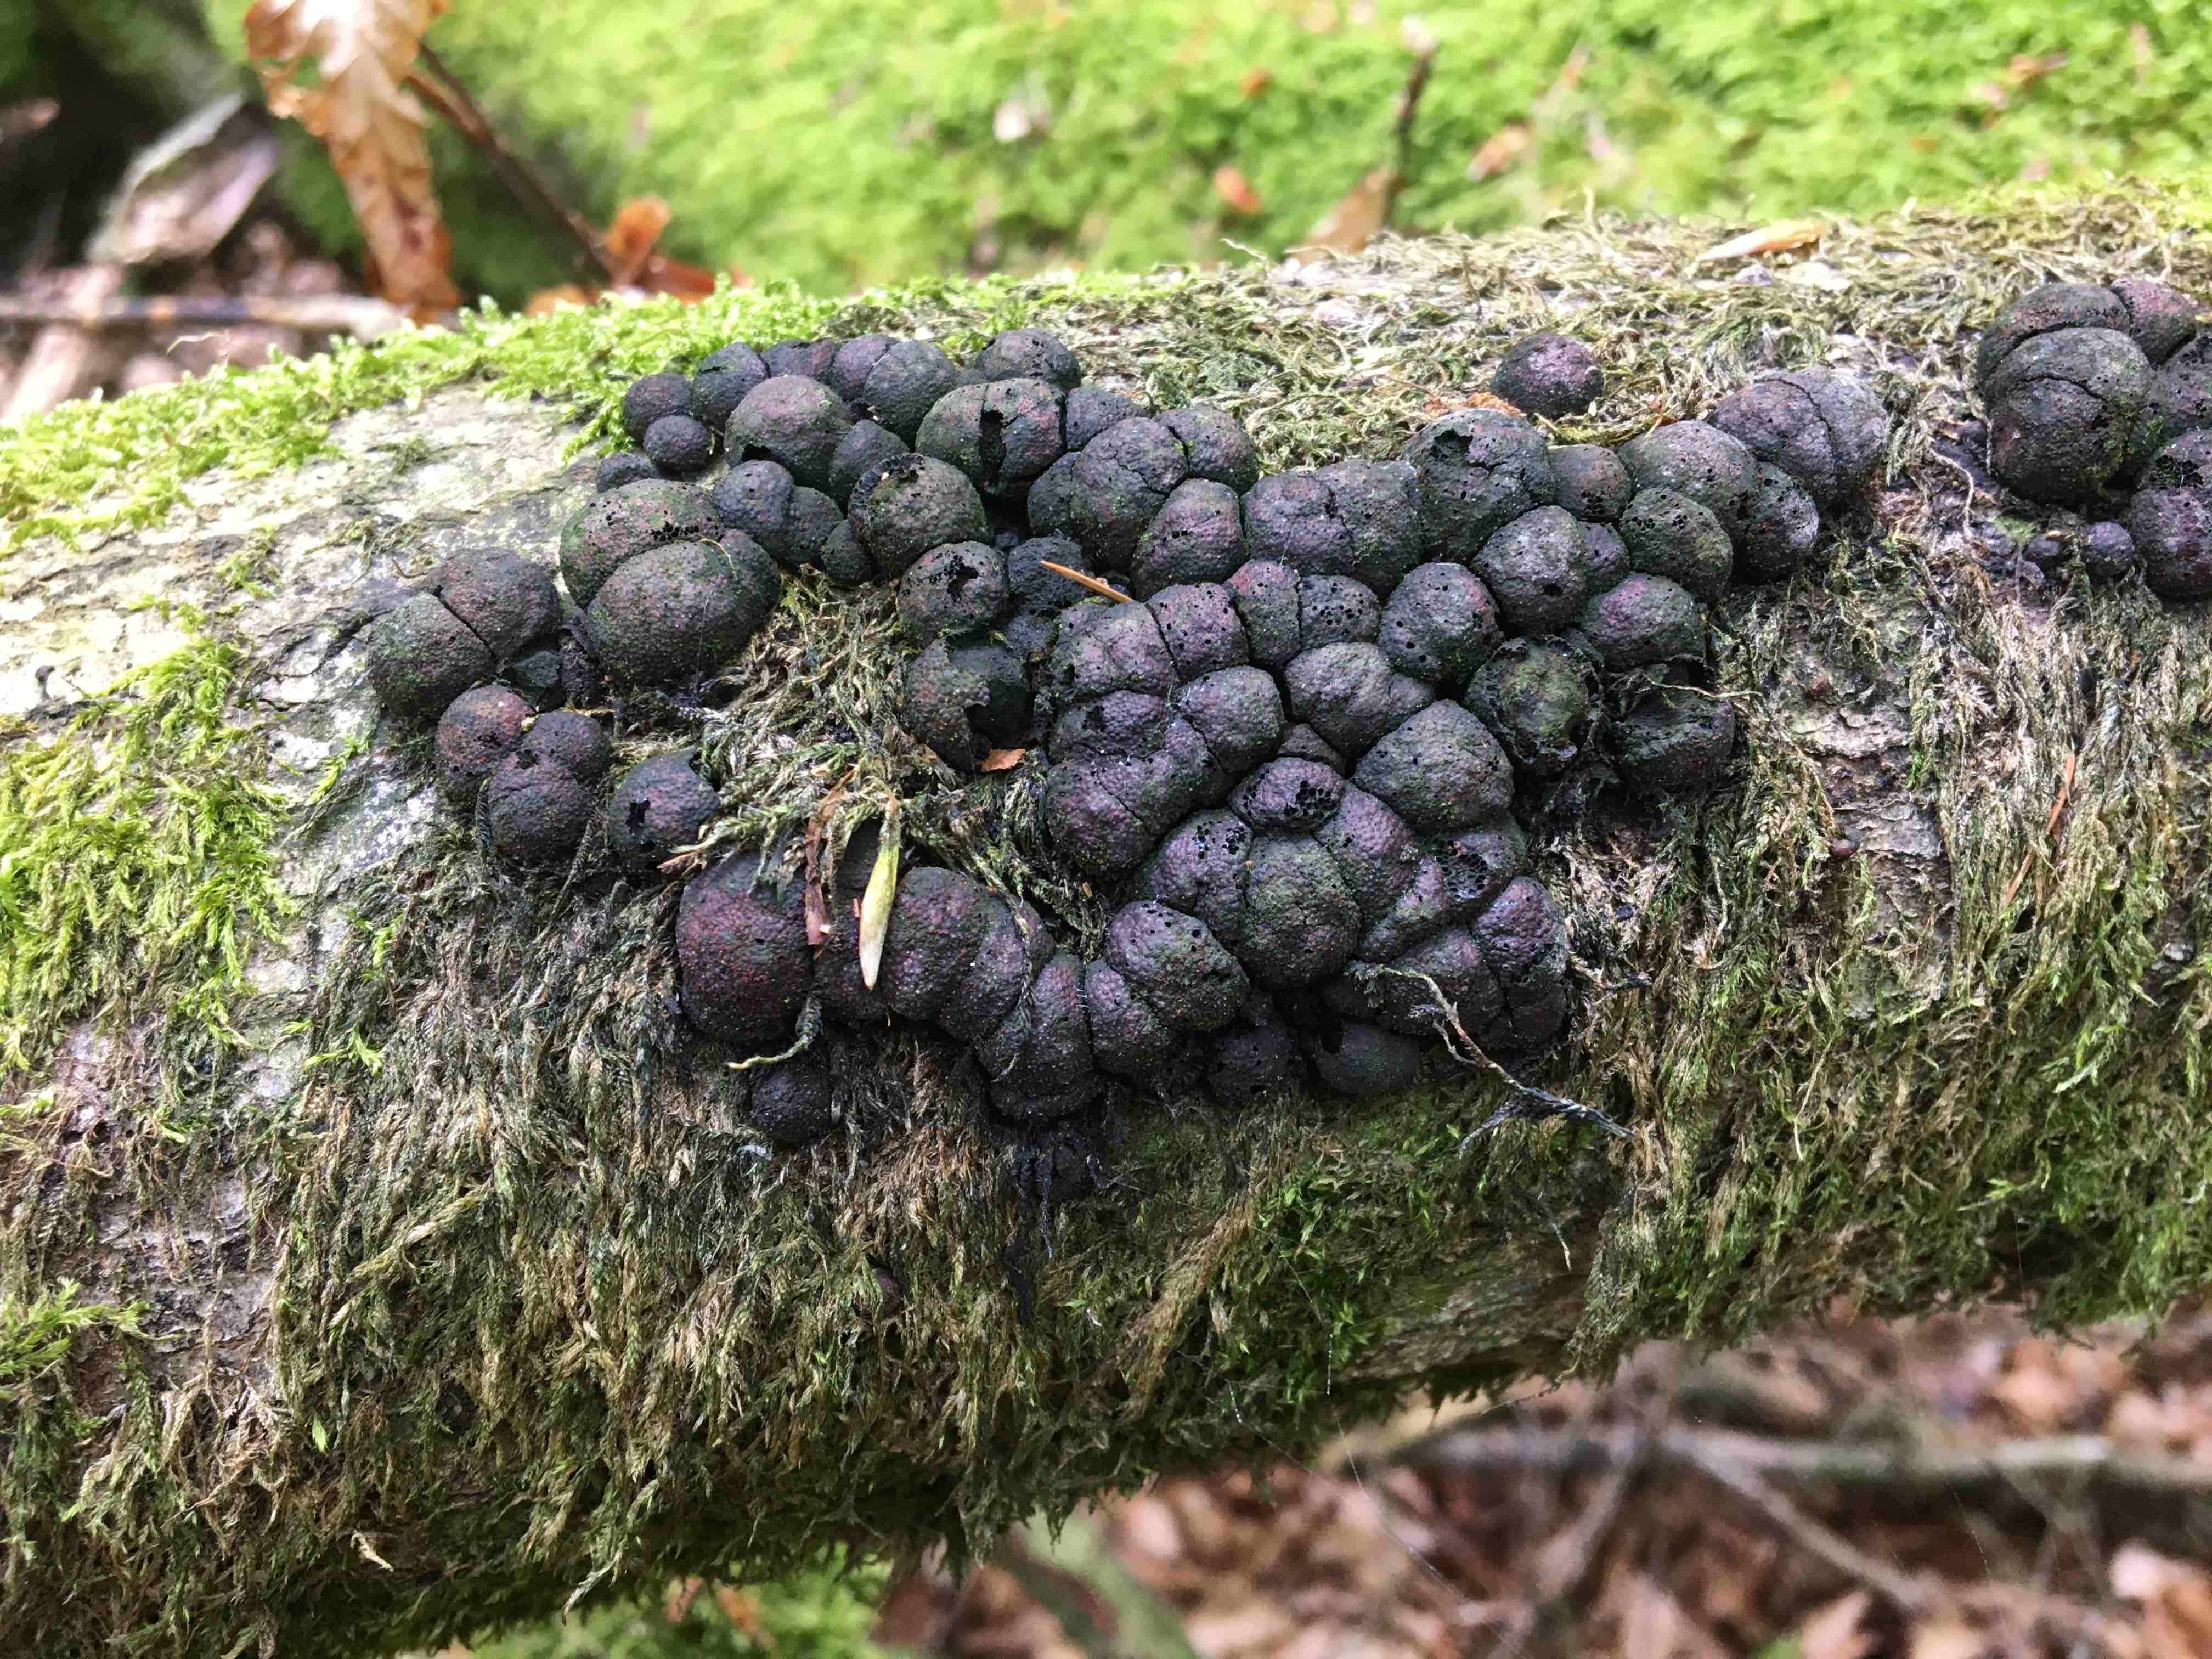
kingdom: Fungi
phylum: Ascomycota
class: Sordariomycetes
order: Xylariales
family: Hypoxylaceae
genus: Hypoxylon
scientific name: Hypoxylon fragiforme
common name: kuljordbær
